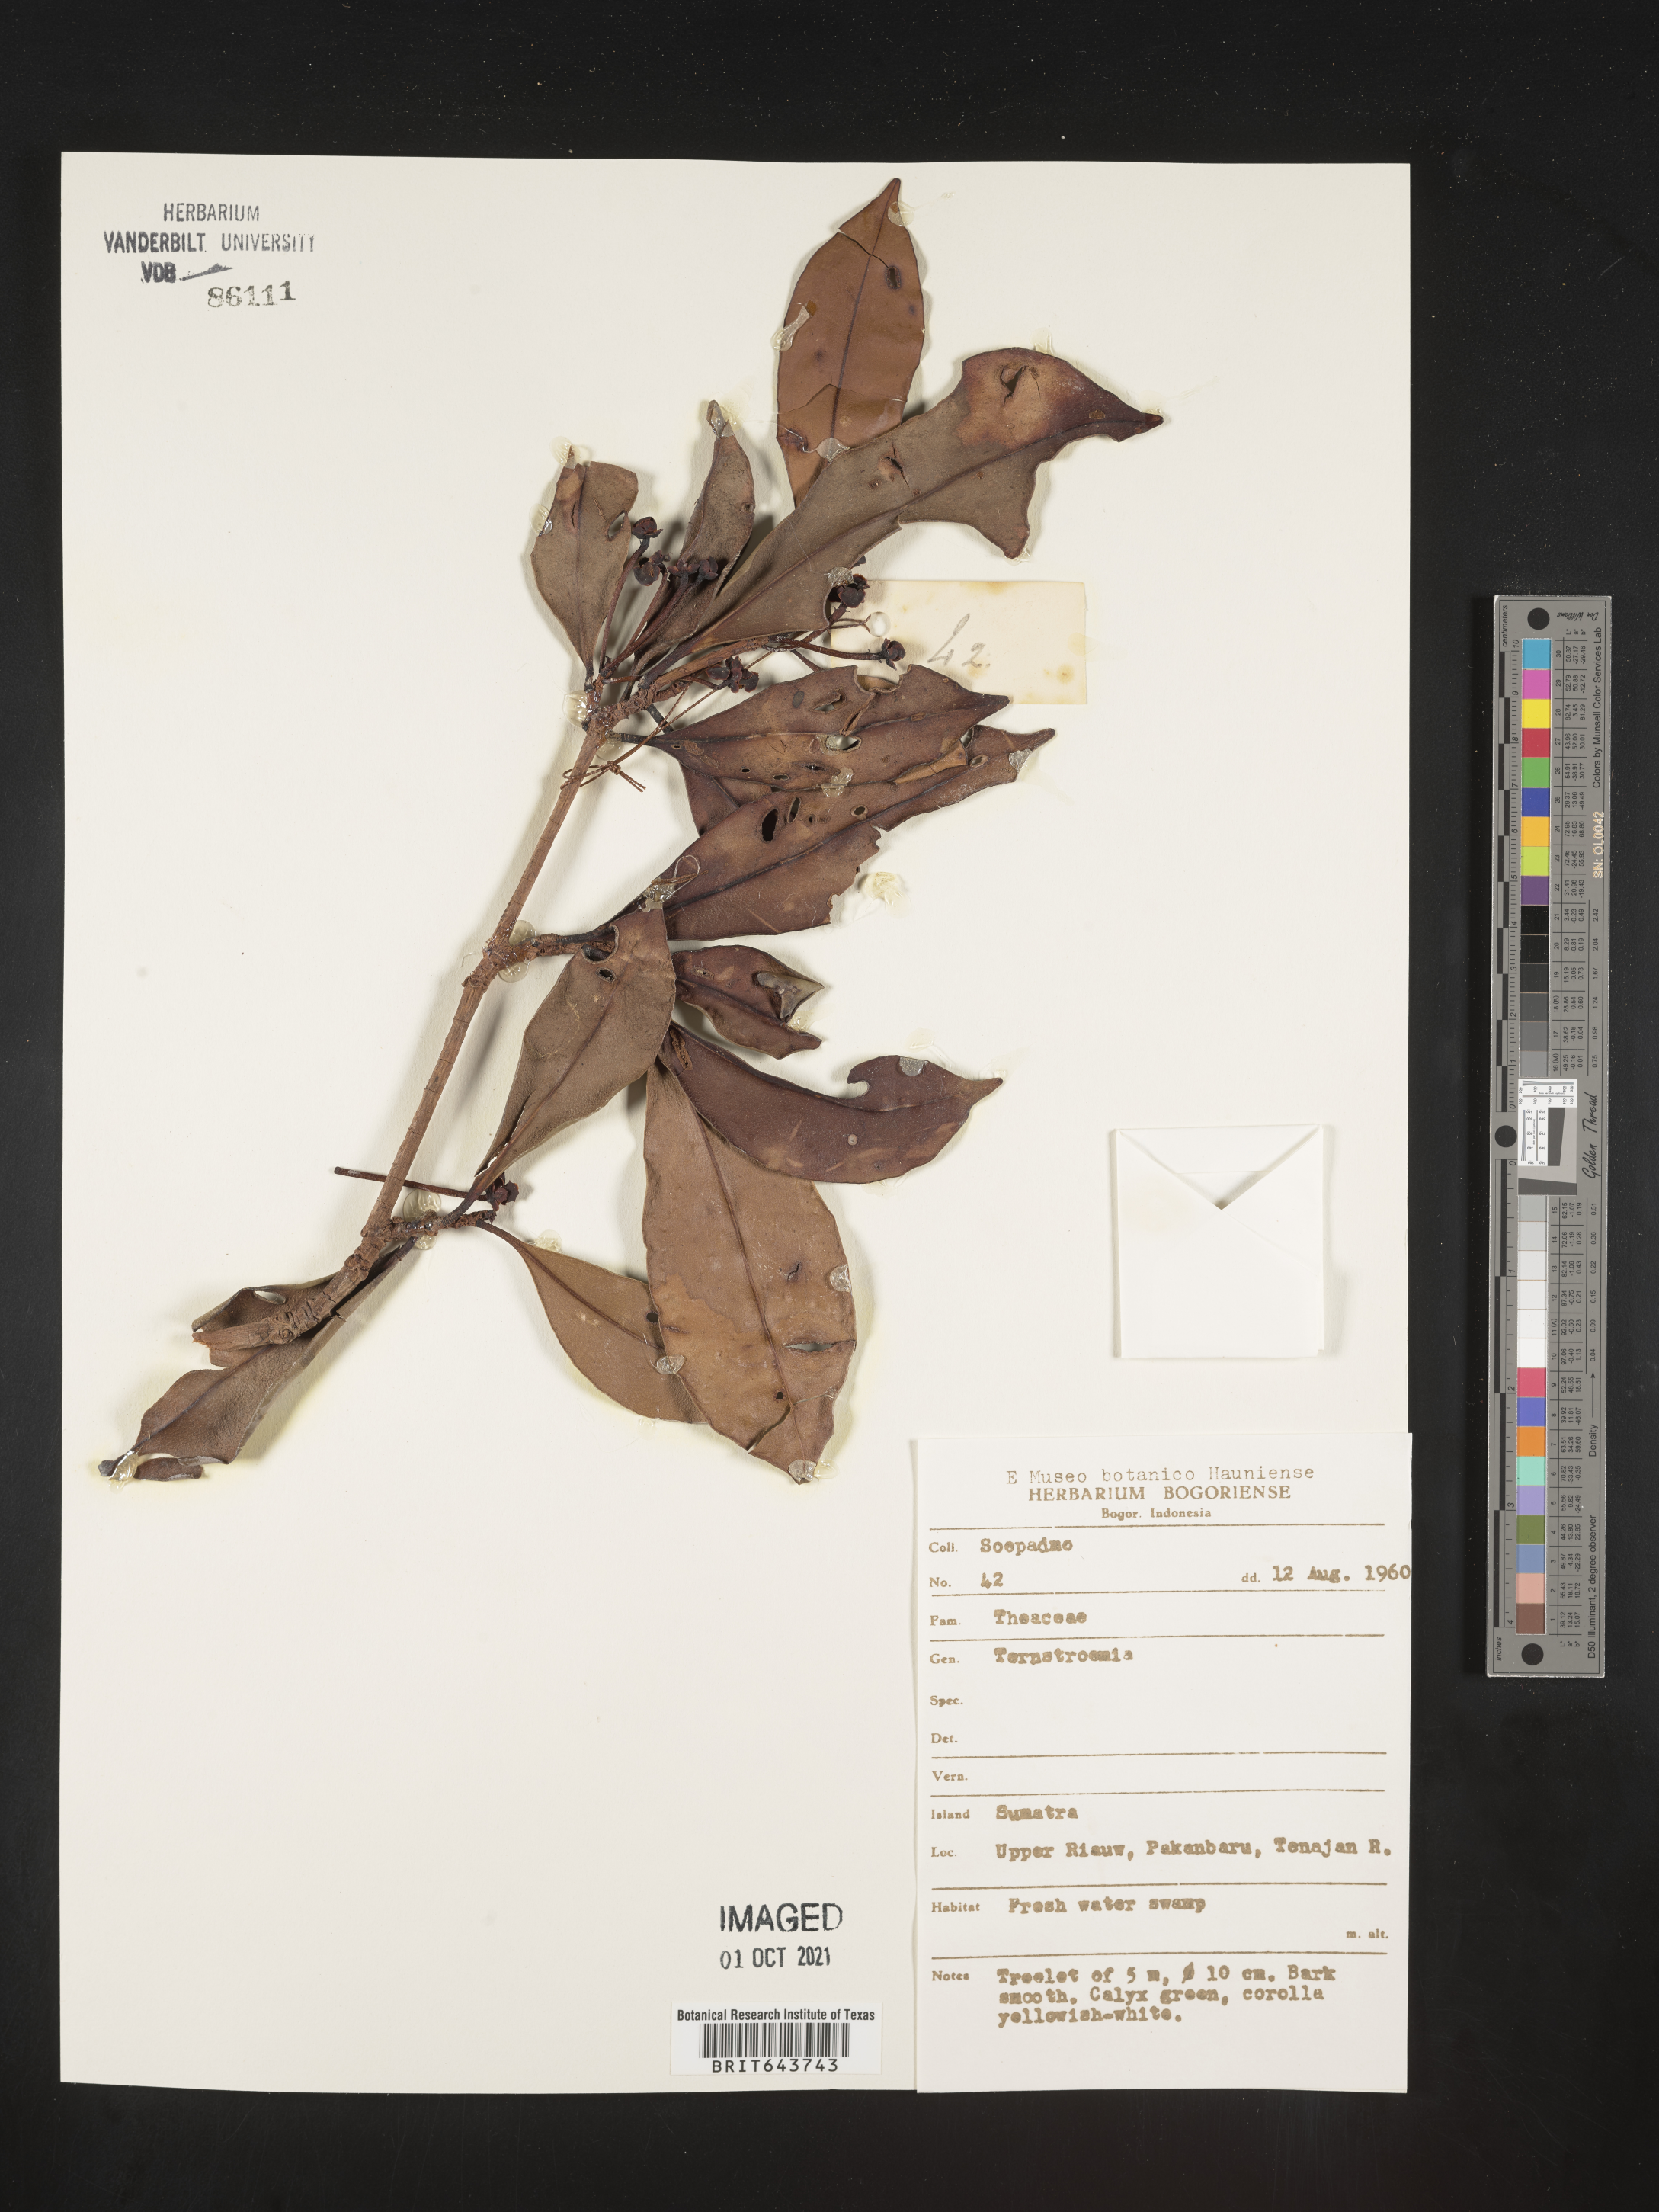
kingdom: Plantae
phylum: Tracheophyta
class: Magnoliopsida
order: Ericales
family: Pentaphylacaceae
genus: Ternstroemia
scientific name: Ternstroemia
